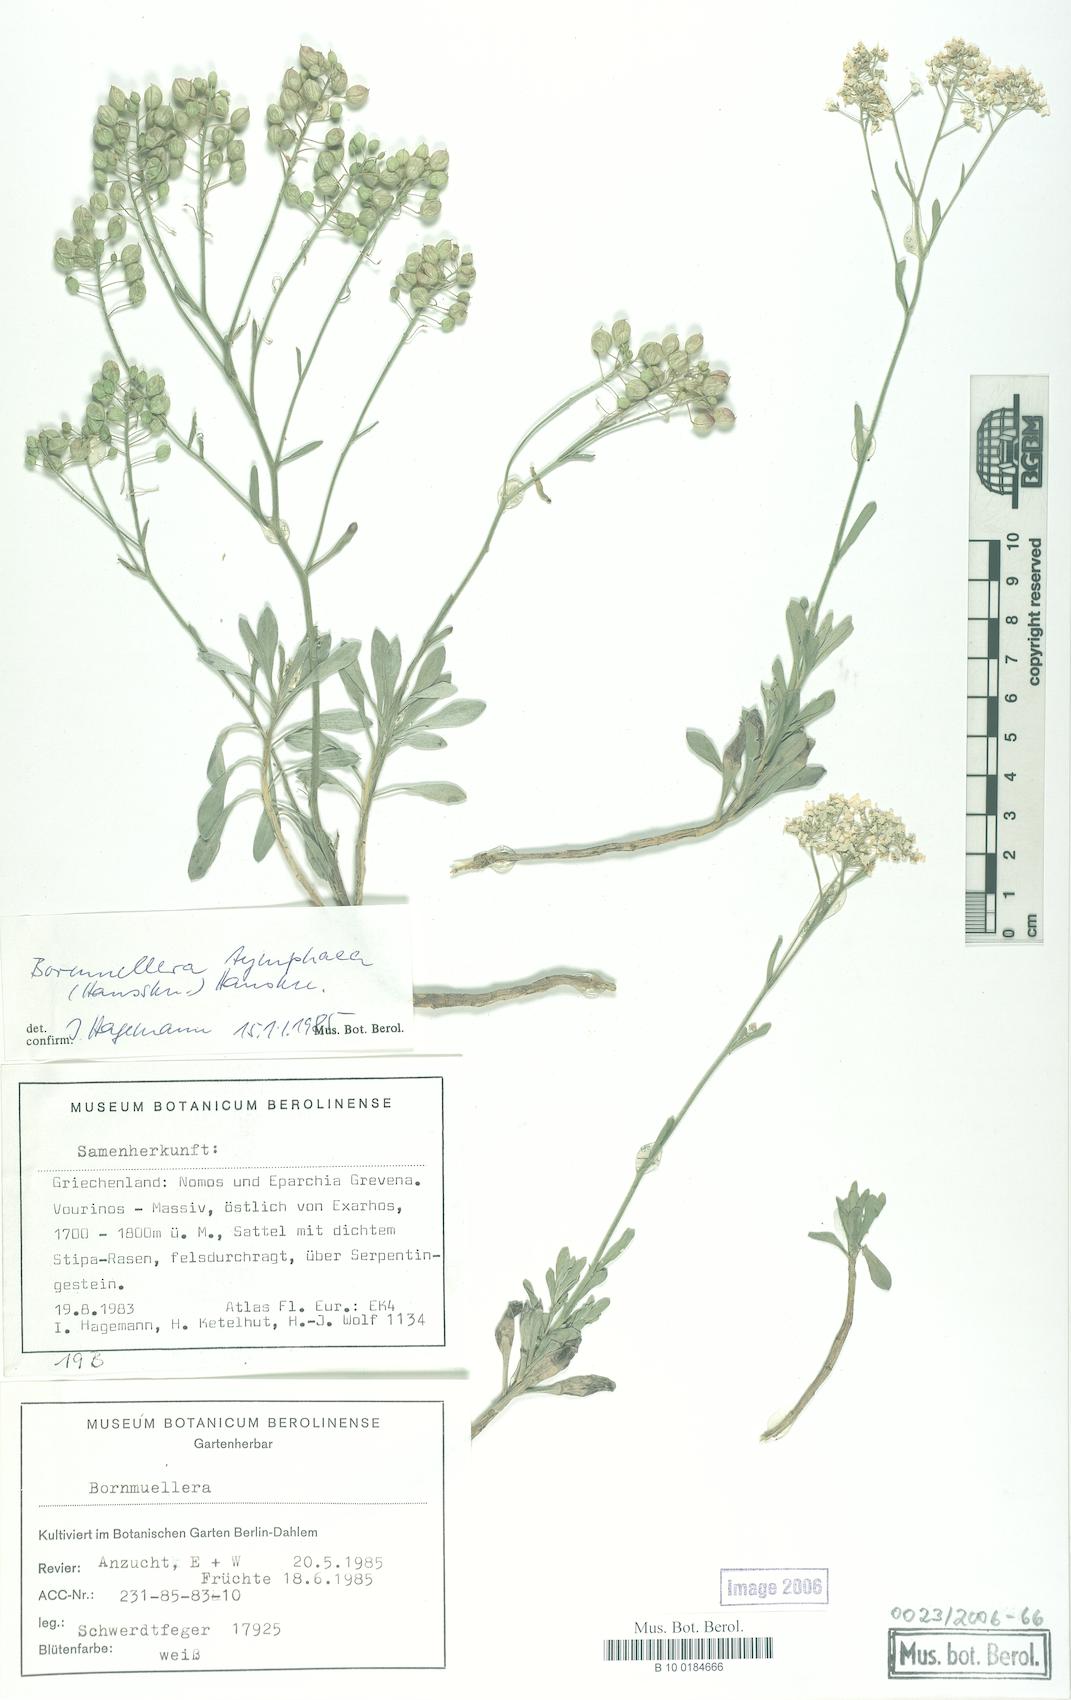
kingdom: Plantae
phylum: Tracheophyta
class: Magnoliopsida
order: Brassicales
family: Brassicaceae
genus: Bornmuellera
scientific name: Bornmuellera tymphaea
